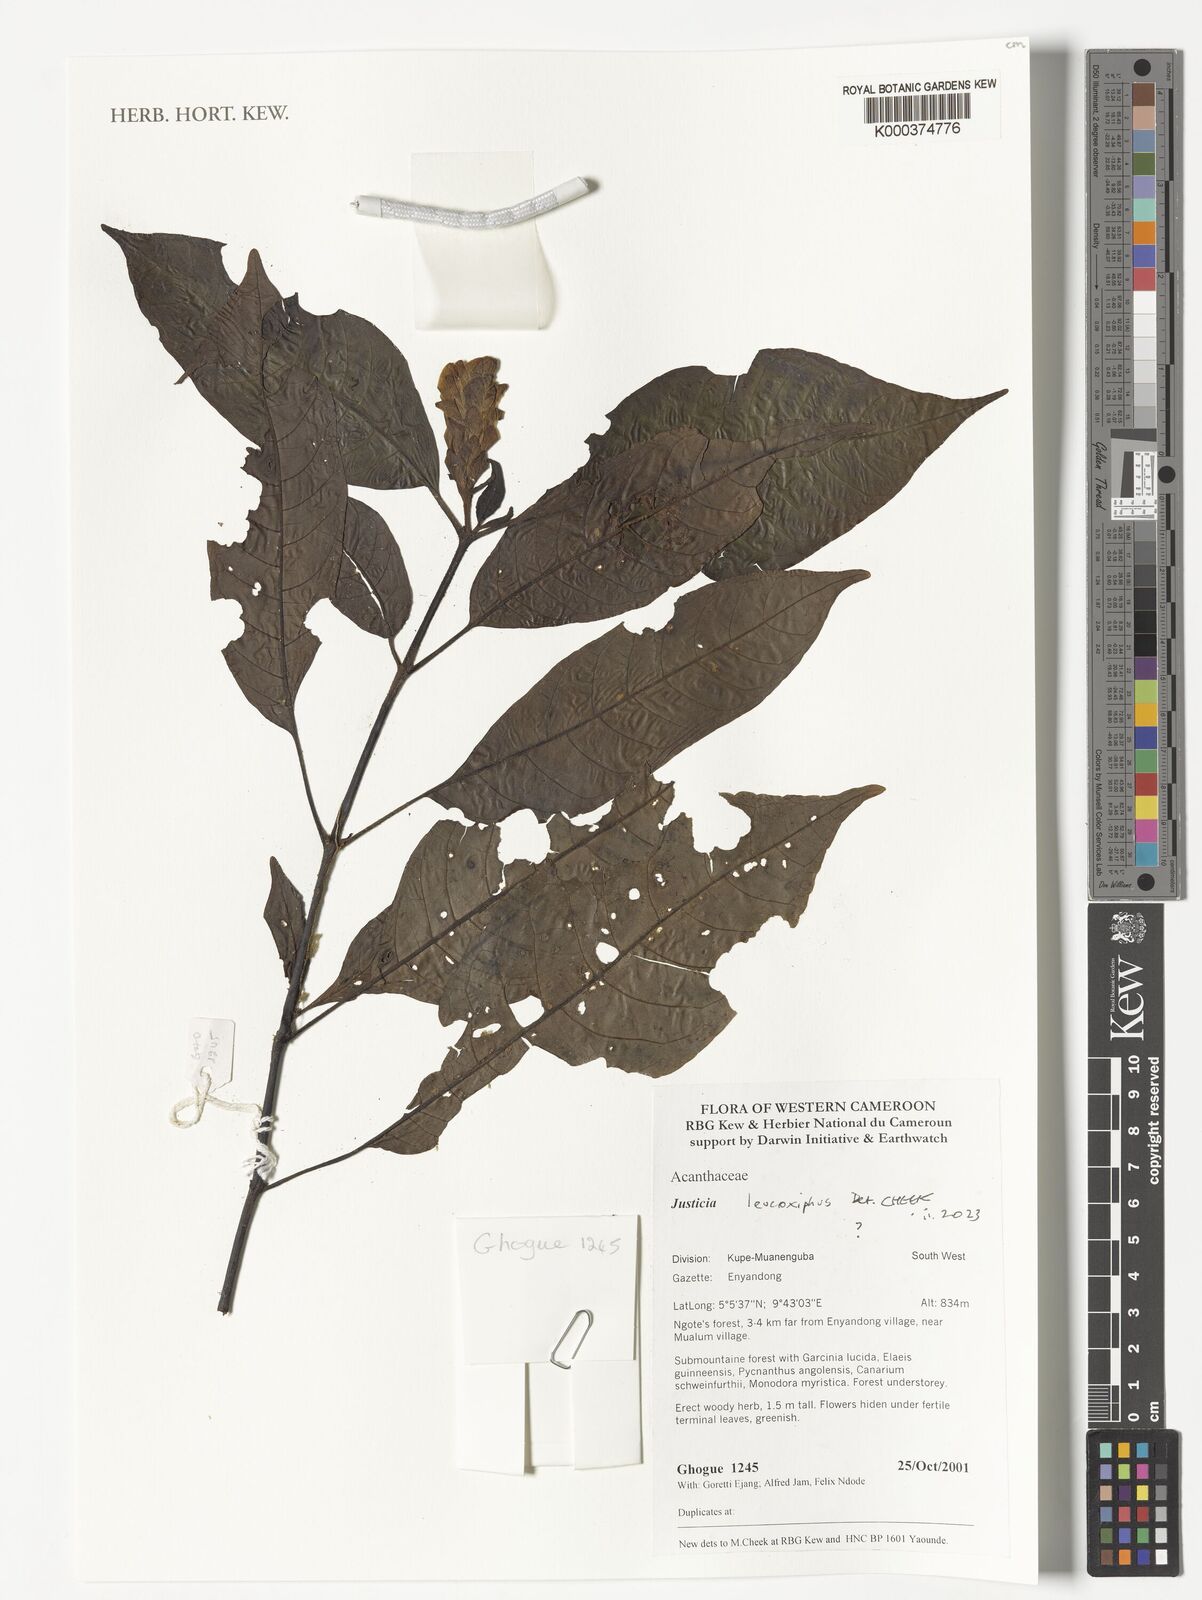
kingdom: Plantae
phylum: Tracheophyta
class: Magnoliopsida
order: Lamiales
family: Acanthaceae
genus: Justicia
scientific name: Justicia leucoxiphus
